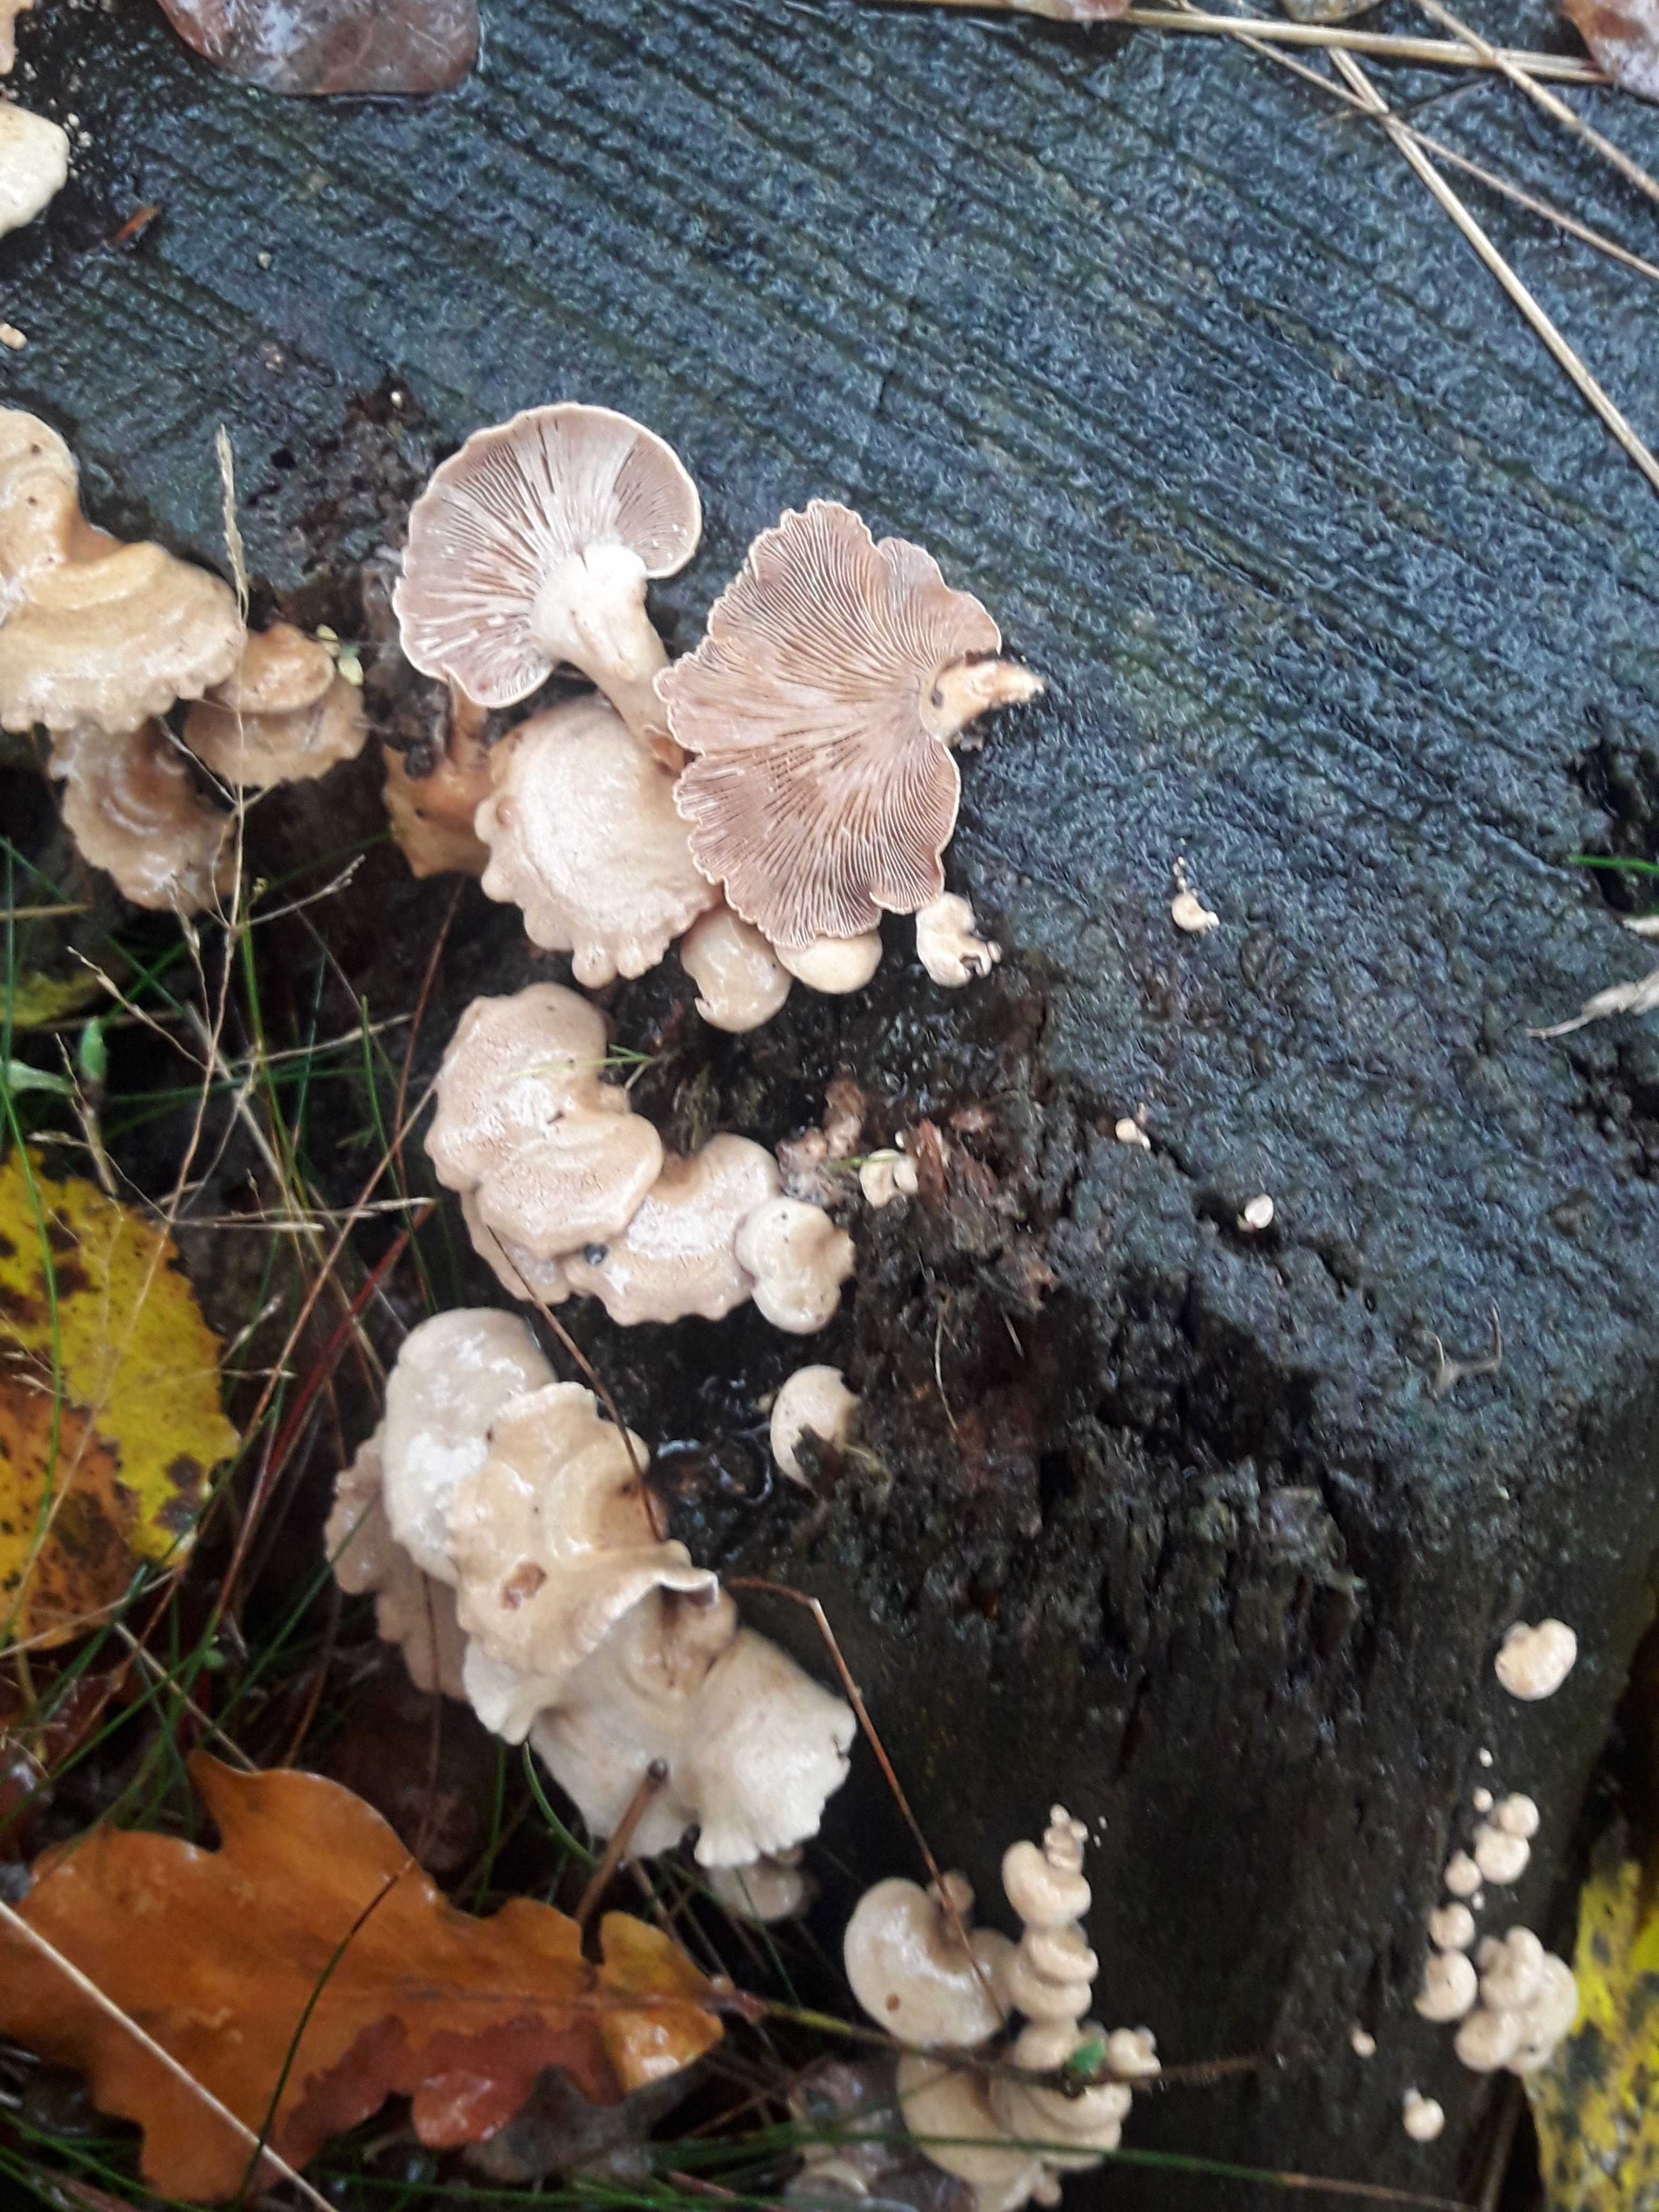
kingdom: Fungi
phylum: Basidiomycota
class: Agaricomycetes
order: Agaricales
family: Mycenaceae
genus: Panellus
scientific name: Panellus stipticus
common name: kliddet epaulethat
